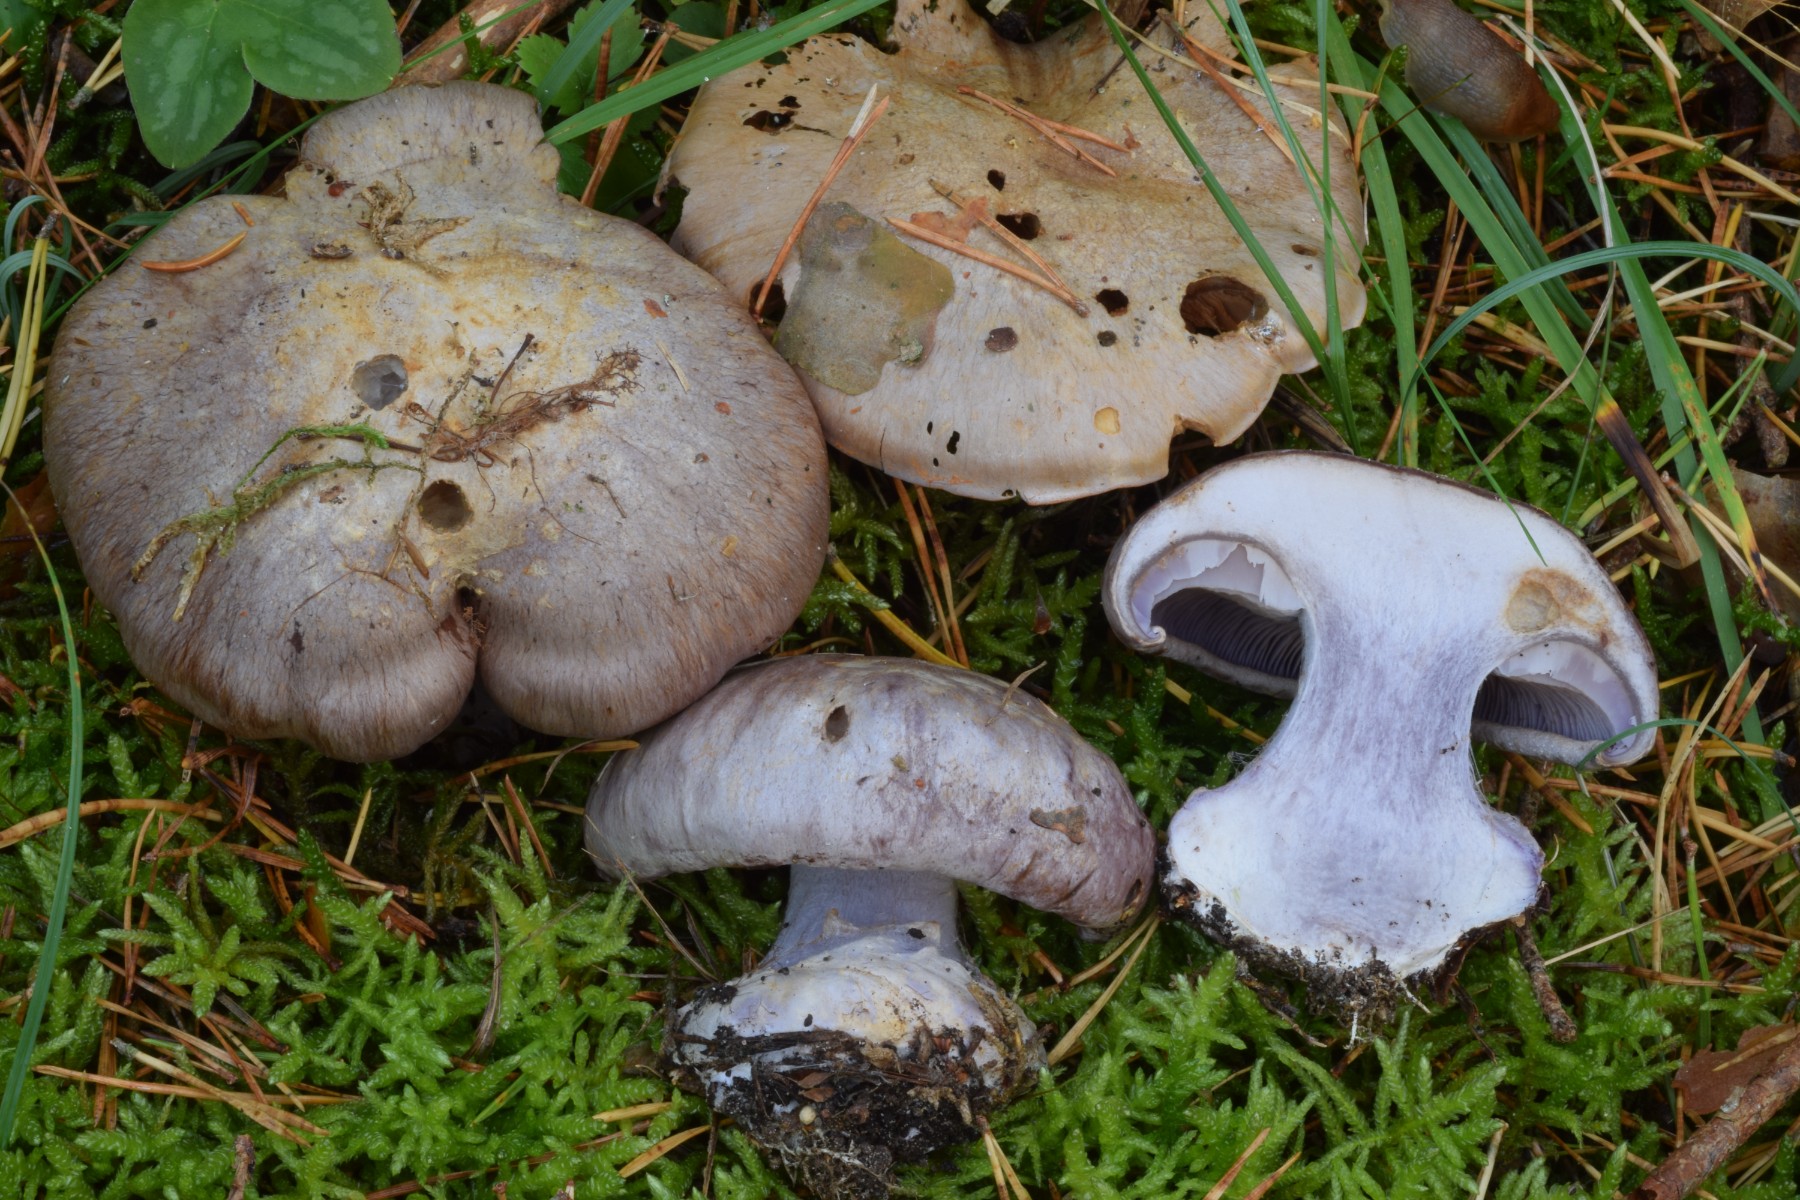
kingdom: Fungi
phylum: Basidiomycota
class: Agaricomycetes
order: Agaricales
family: Cortinariaceae
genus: Cortinarius
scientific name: Cortinarius caesiocanescens
